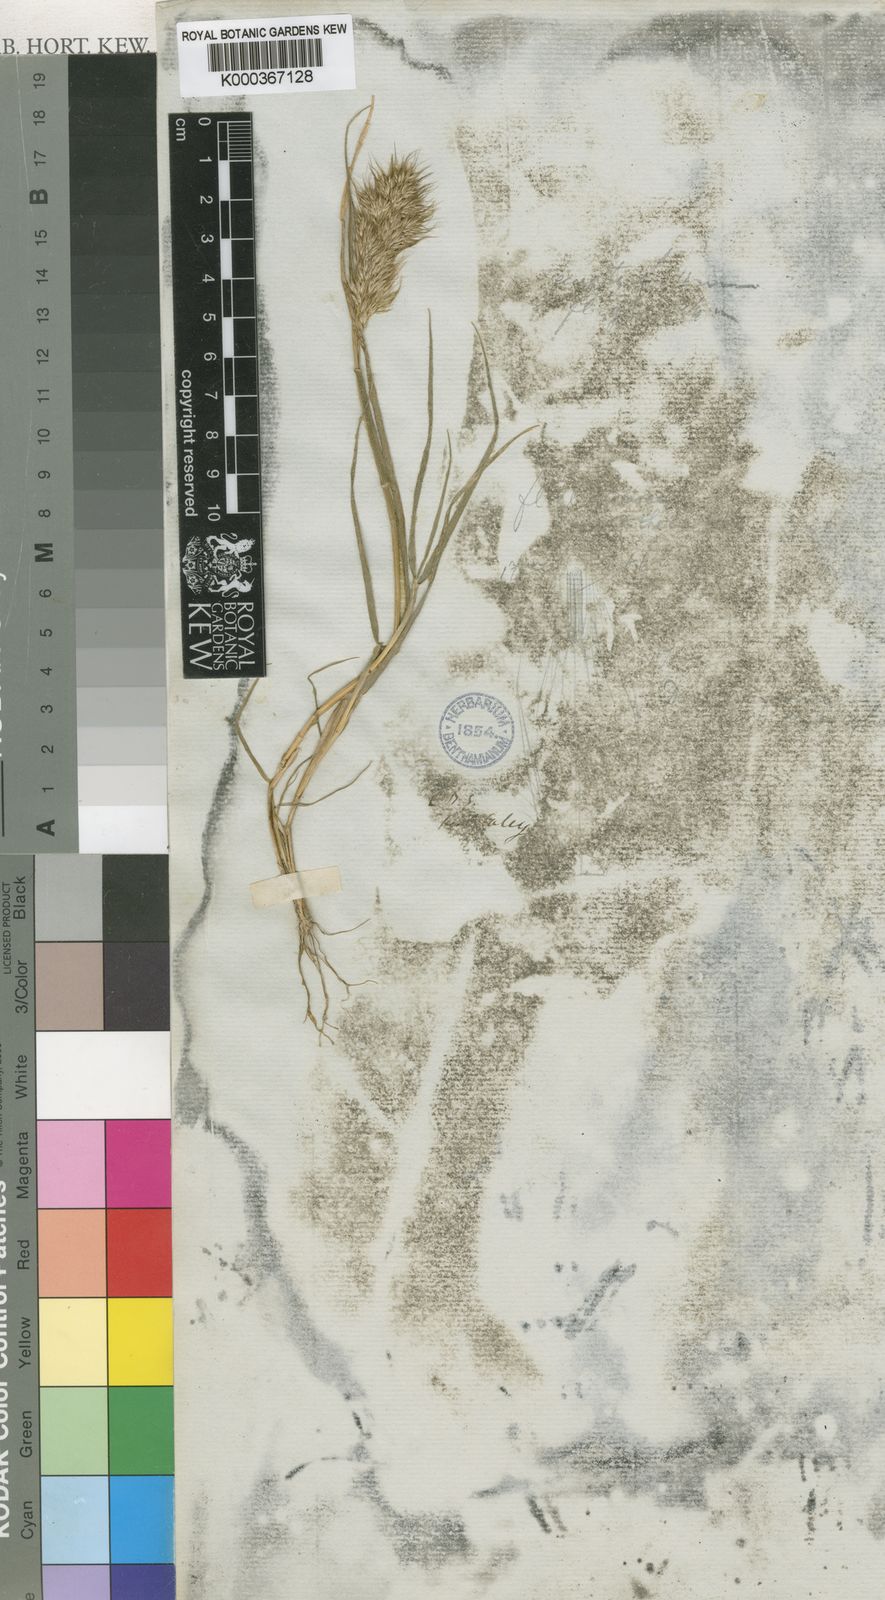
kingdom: Plantae
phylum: Tracheophyta
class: Liliopsida
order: Poales
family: Poaceae
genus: Pentameris
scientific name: Pentameris triseta
